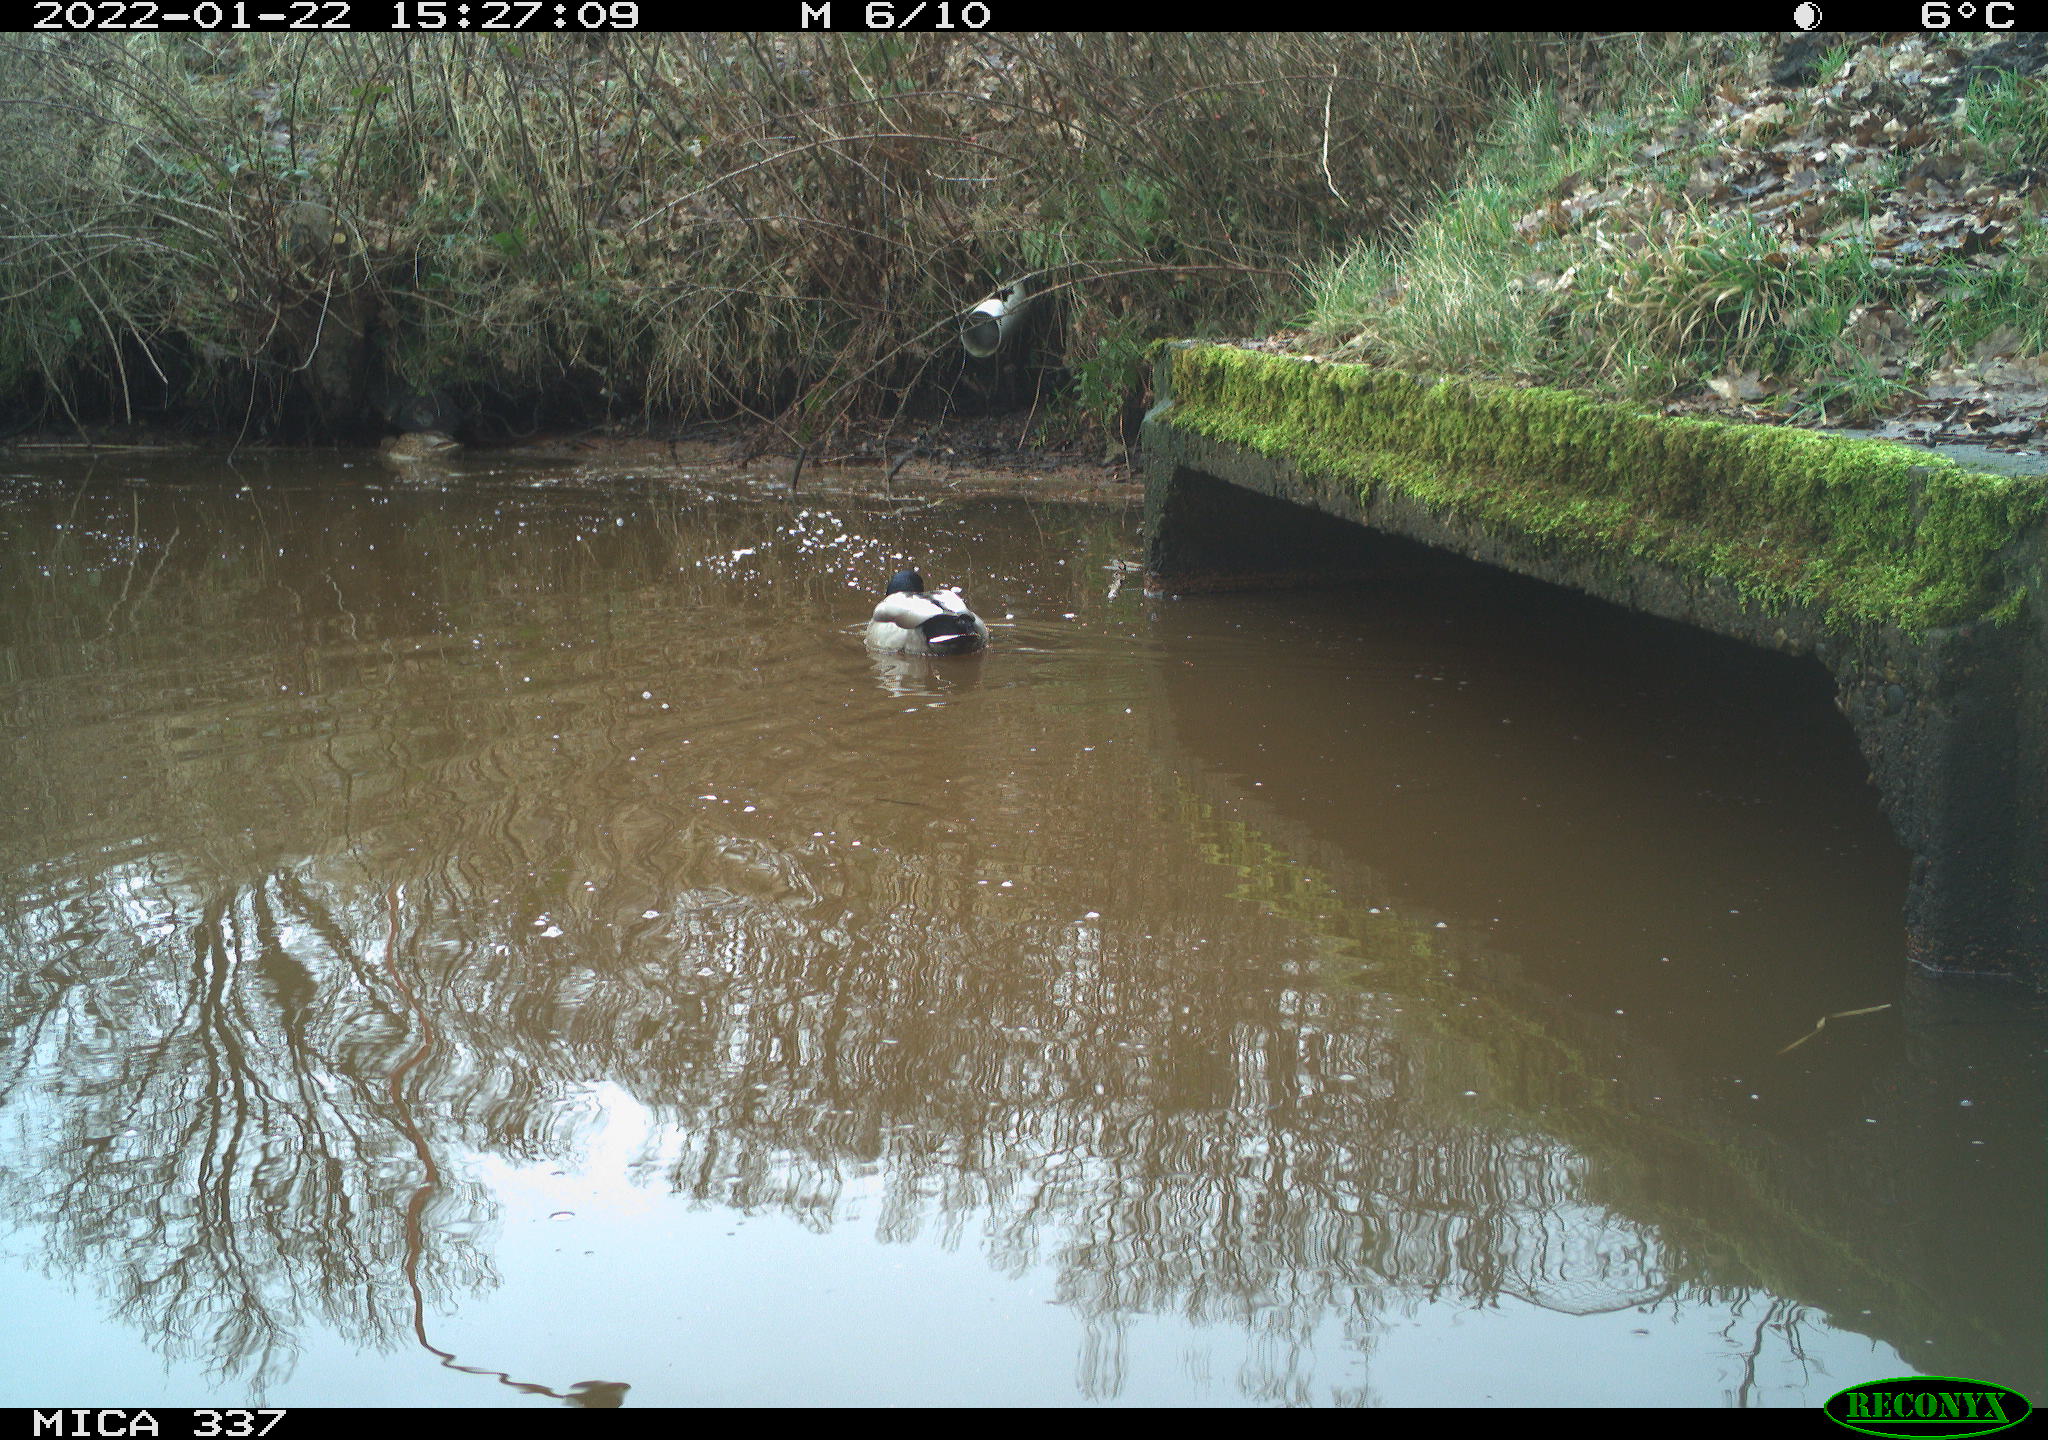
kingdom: Animalia
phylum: Chordata
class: Aves
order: Anseriformes
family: Anatidae
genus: Anas
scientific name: Anas platyrhynchos
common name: Mallard
